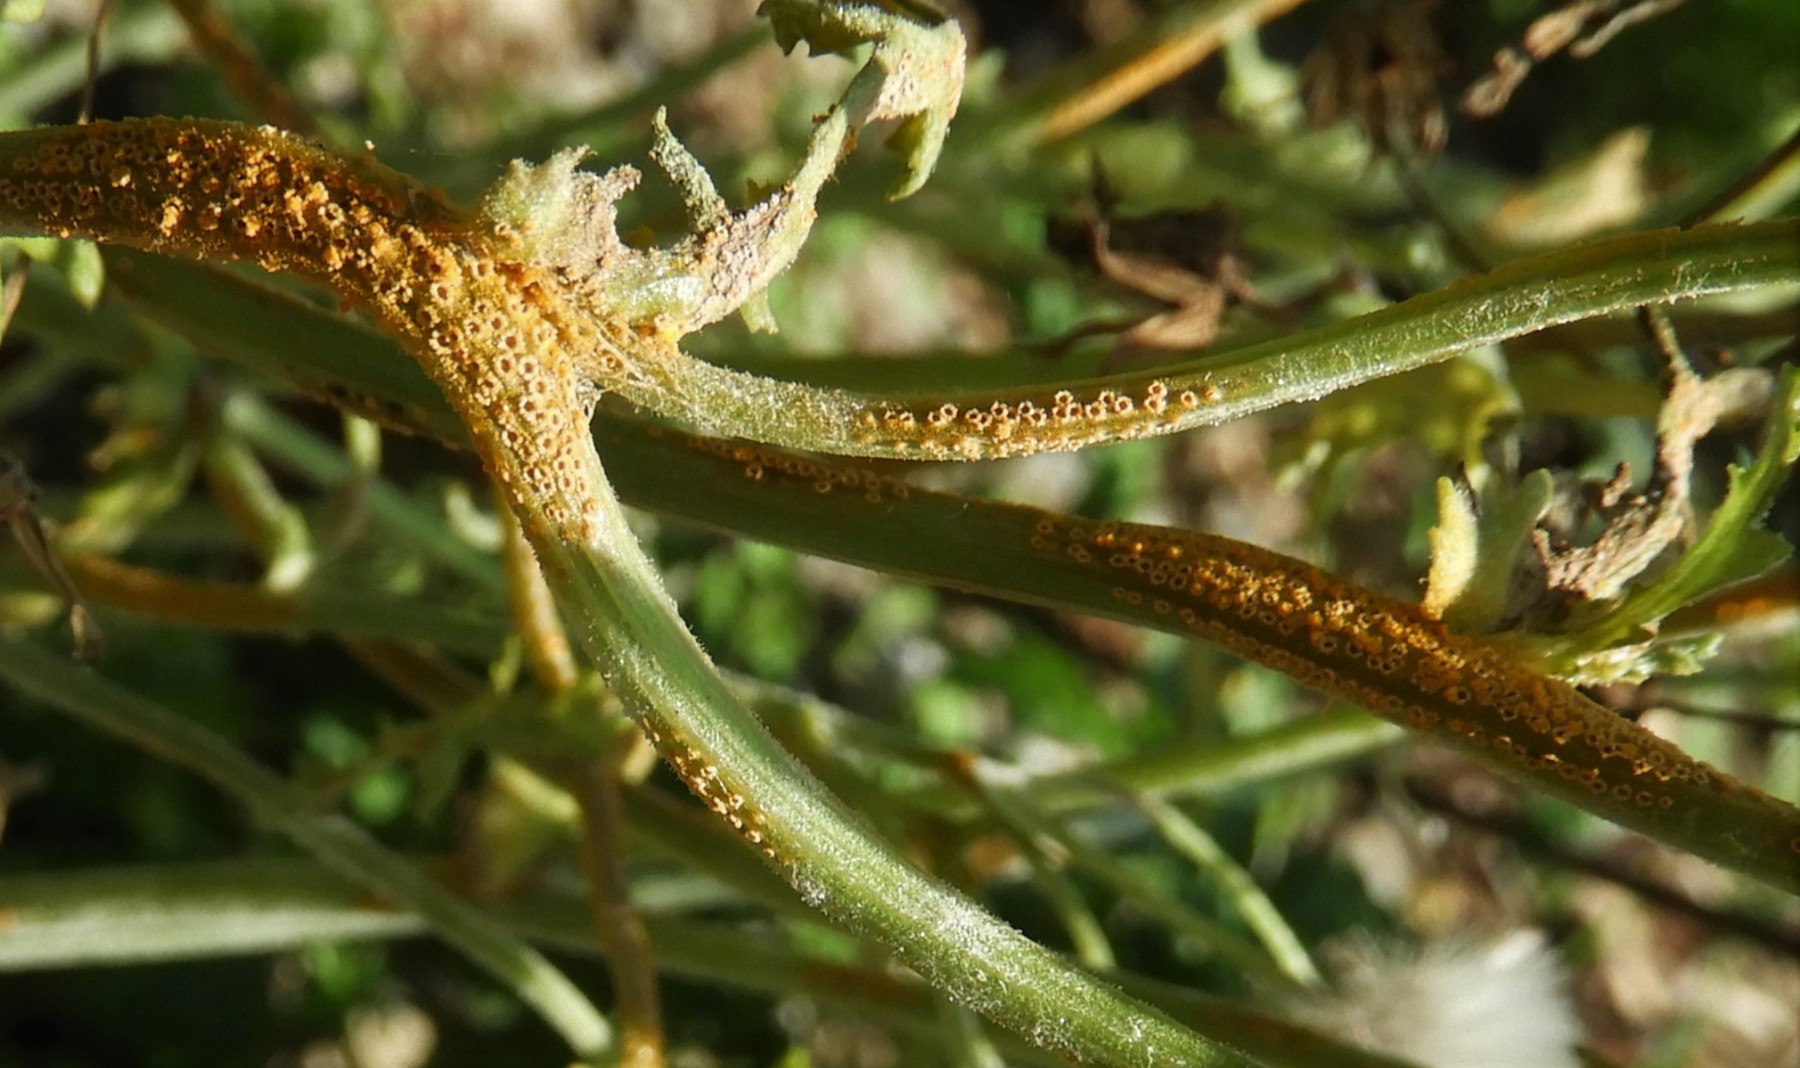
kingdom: Fungi
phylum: Basidiomycota
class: Pucciniomycetes
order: Pucciniales
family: Pucciniaceae
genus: Puccinia
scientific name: Puccinia lagenophorae
